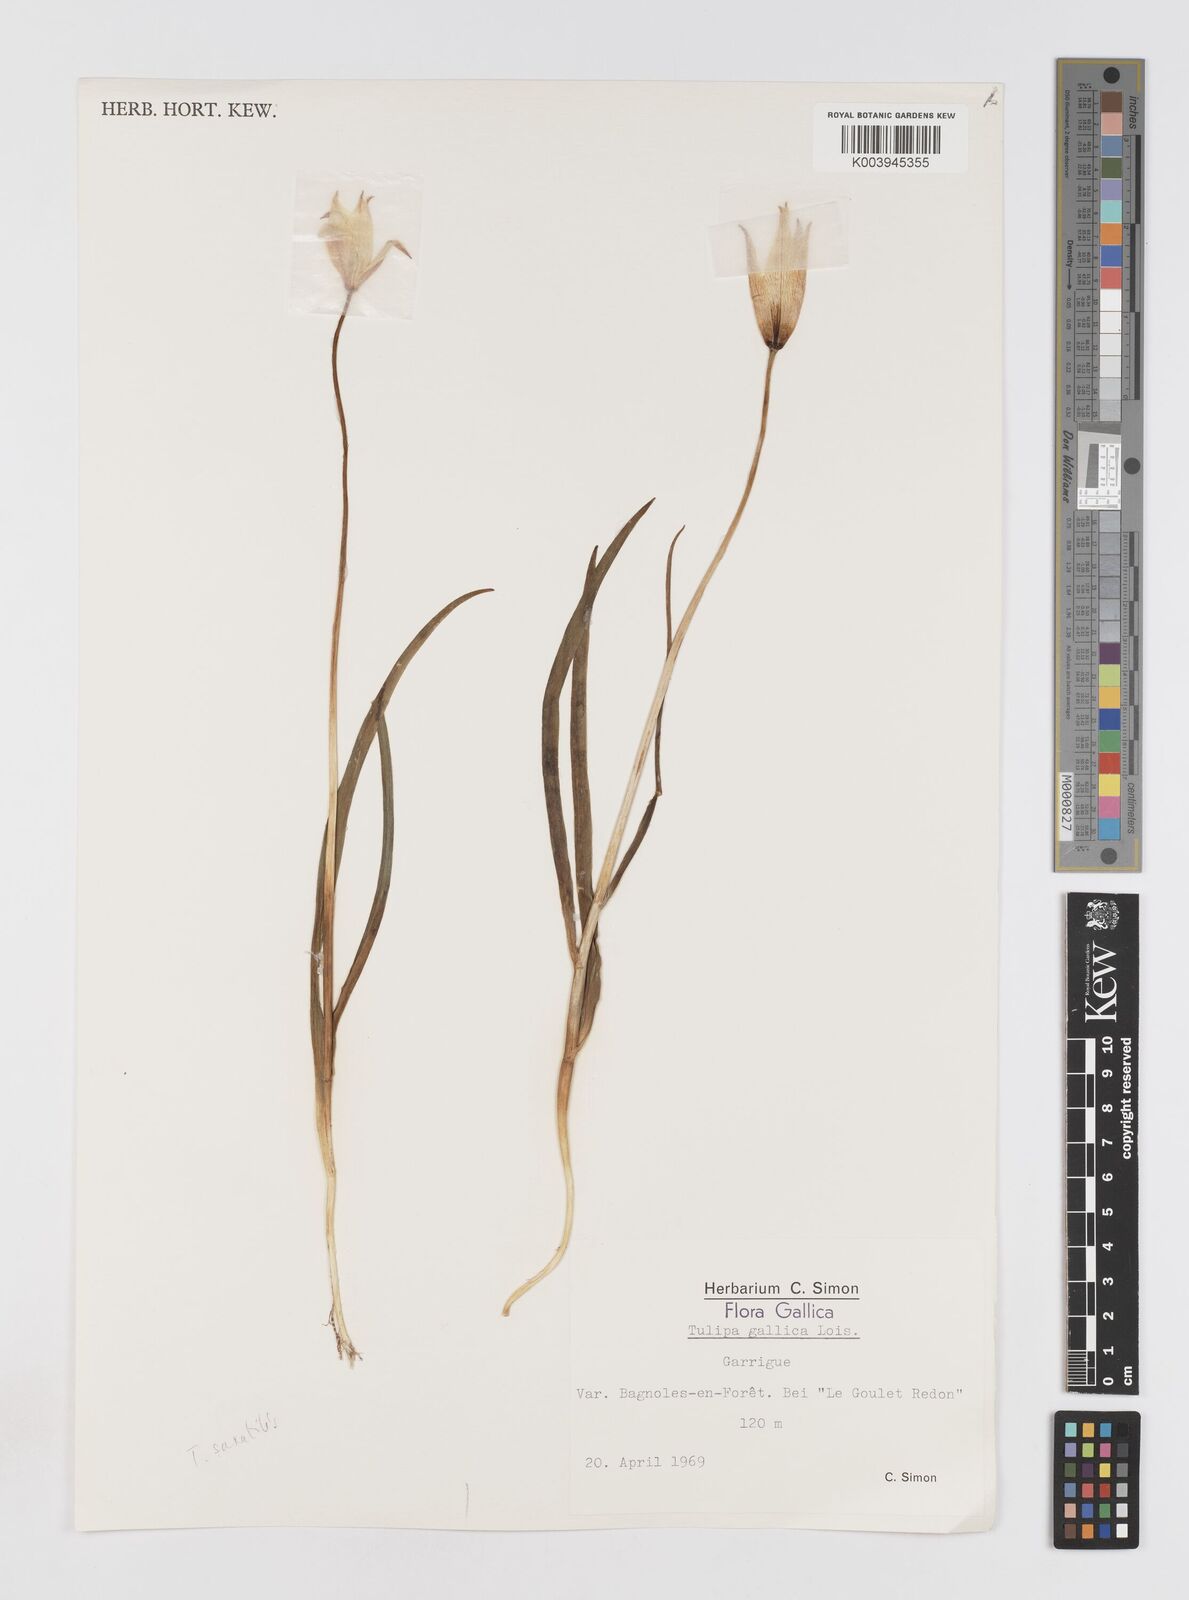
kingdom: Plantae
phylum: Tracheophyta
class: Liliopsida
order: Liliales
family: Liliaceae
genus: Tulipa
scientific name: Tulipa sylvestris
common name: Wild tulip
